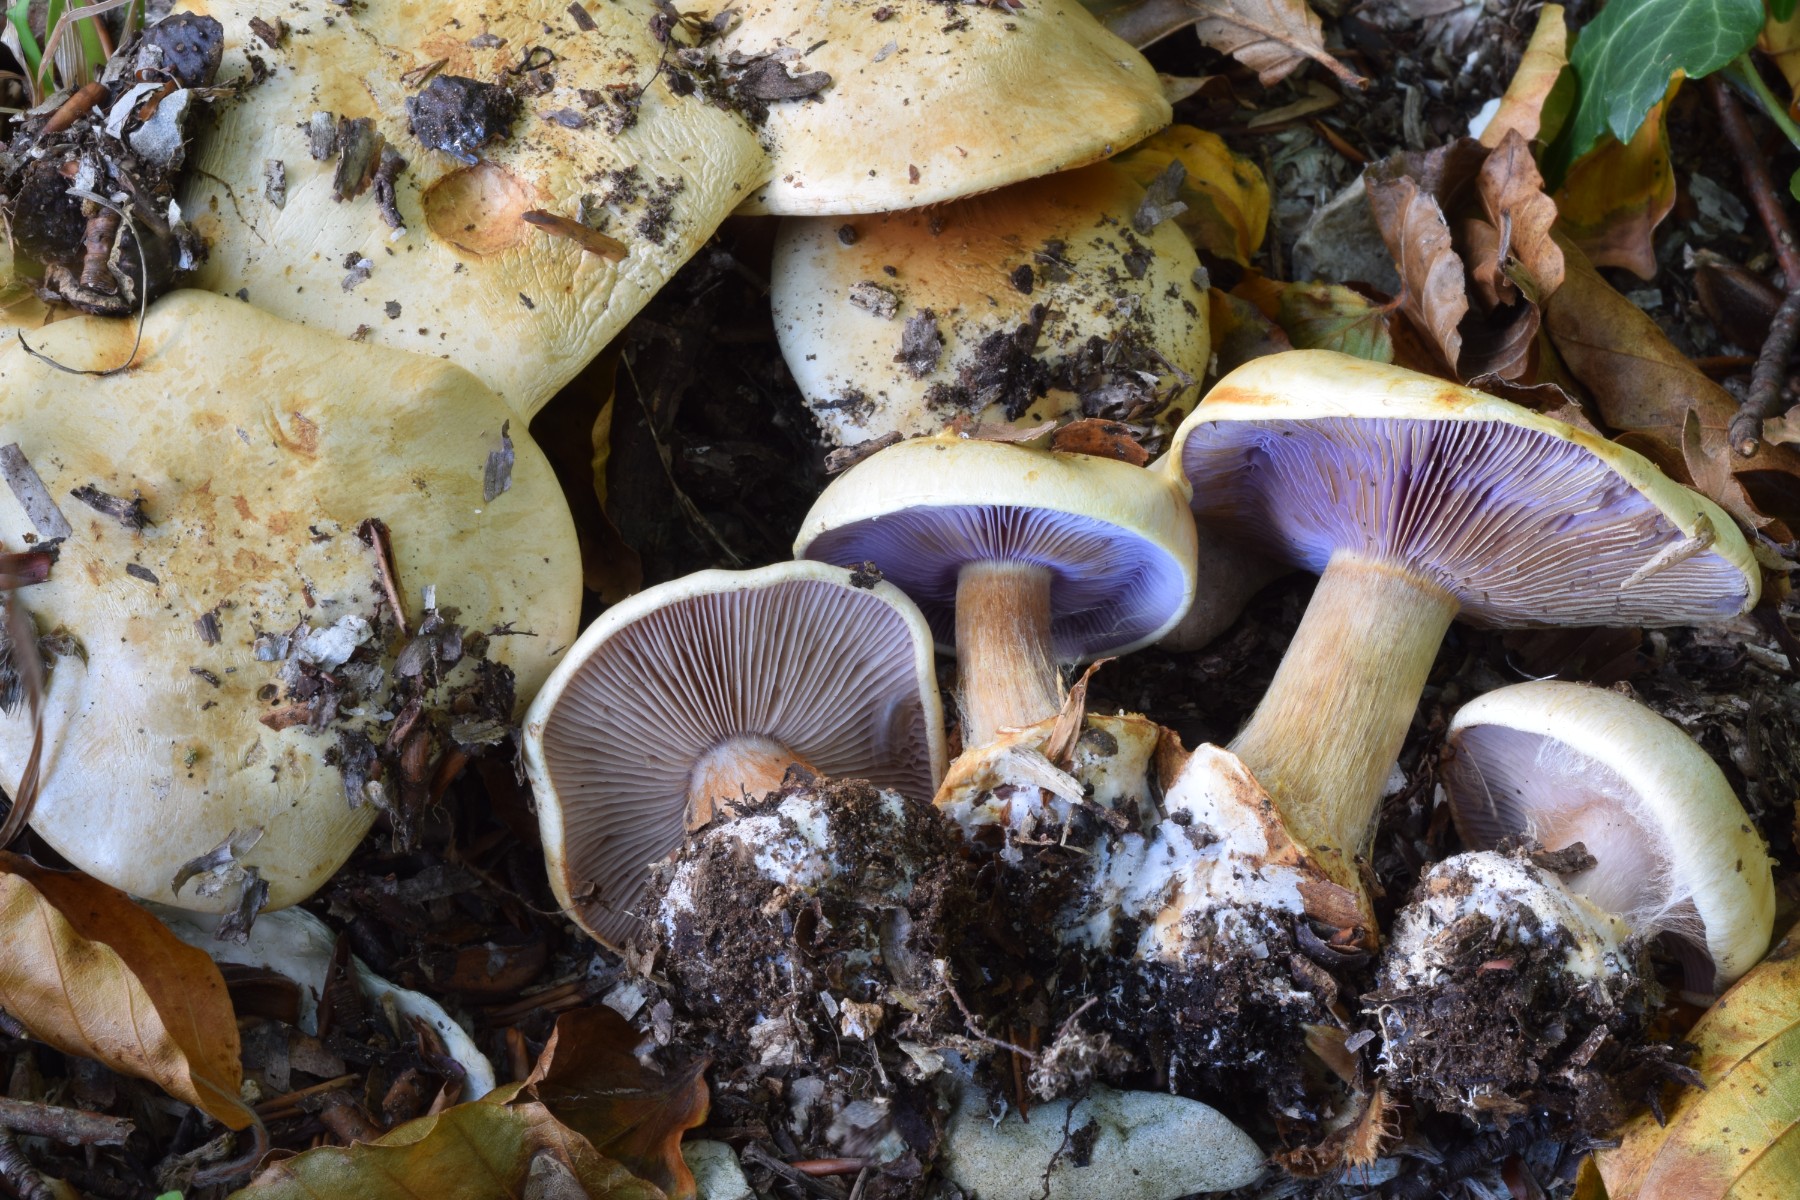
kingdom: Fungi
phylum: Basidiomycota
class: Agaricomycetes
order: Agaricales
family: Cortinariaceae
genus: Calonarius
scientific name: Calonarius catharinae
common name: Katrines slørhat
